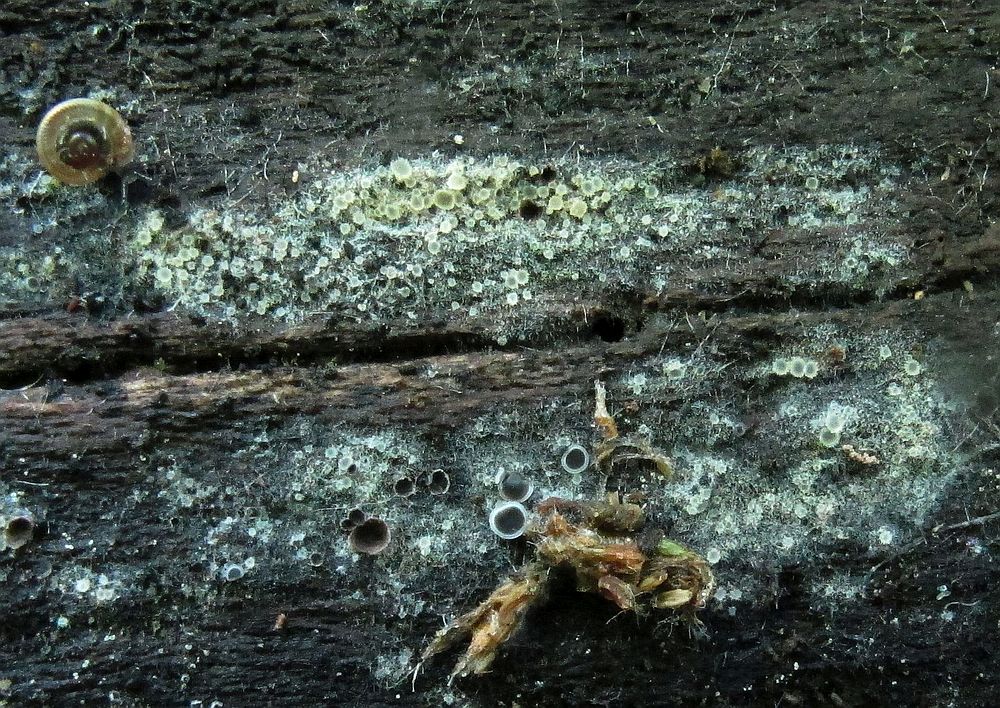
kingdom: Fungi
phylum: Ascomycota
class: Leotiomycetes
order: Helotiales
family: Arachnopezizaceae
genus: Arachnopeziza
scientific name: Arachnopeziza aurata
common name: bleggul spindskive
